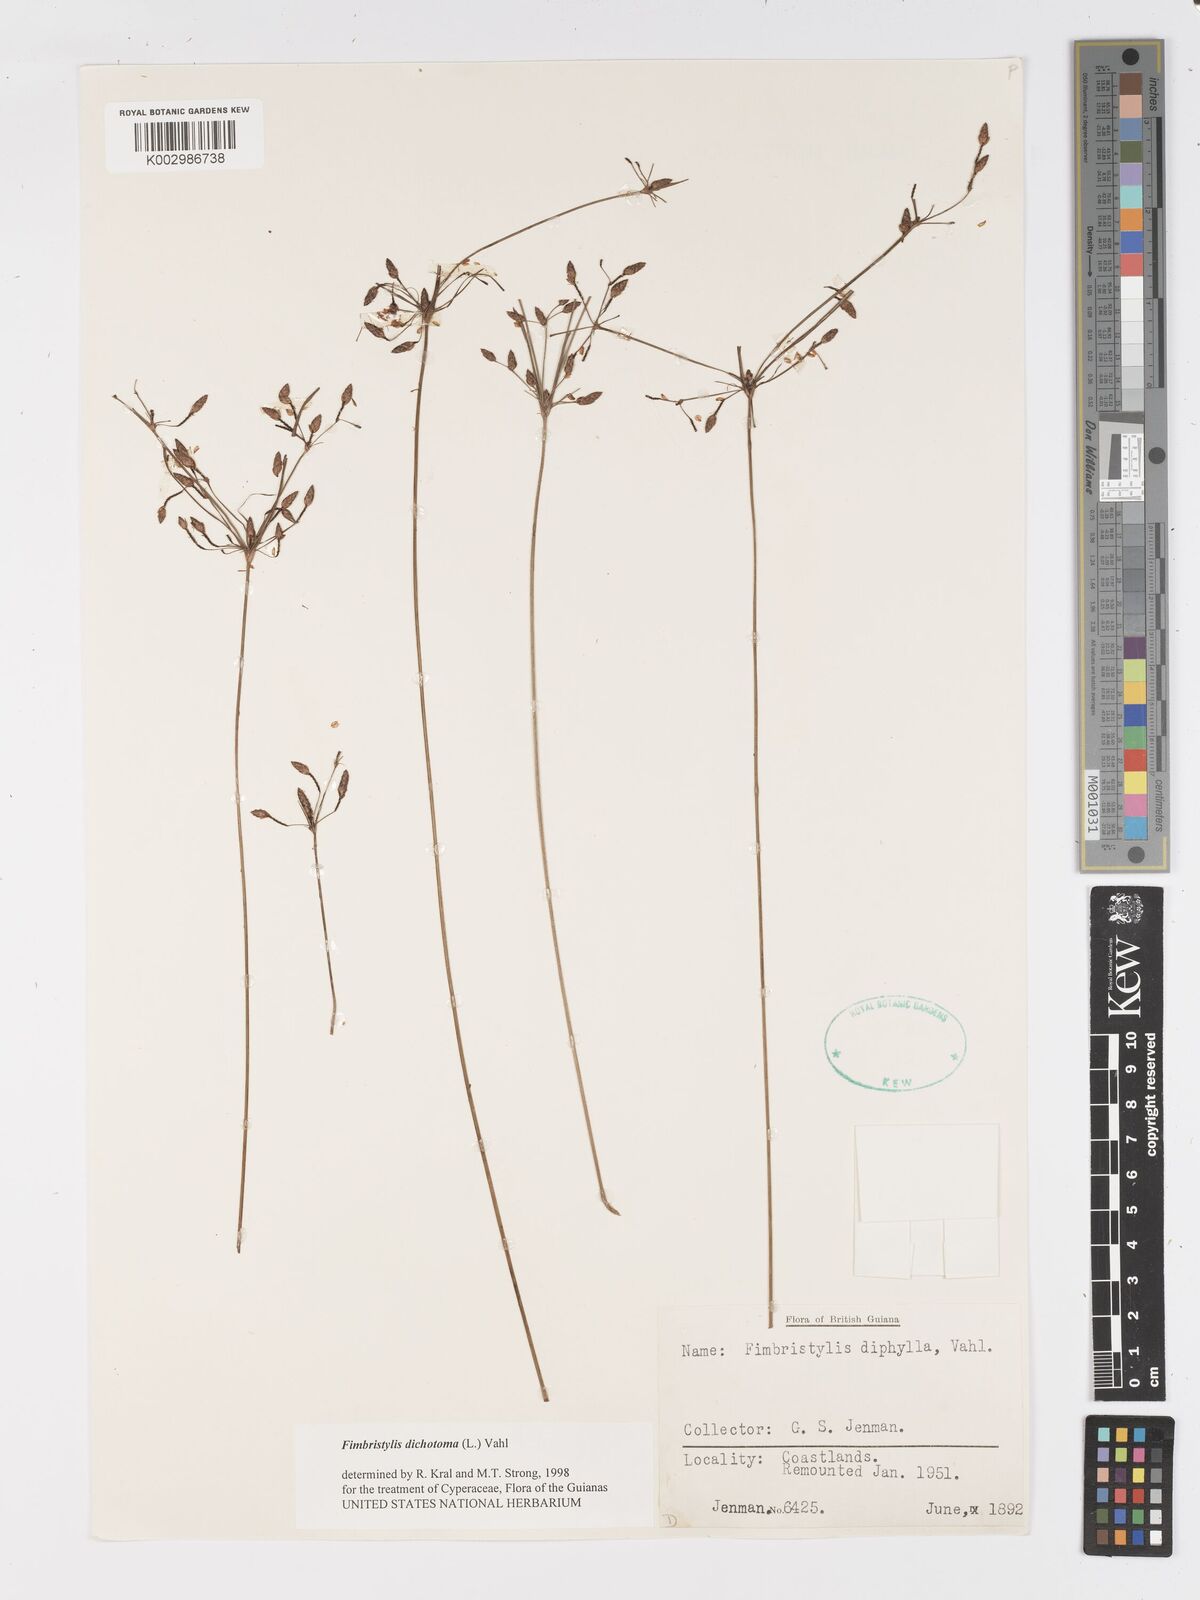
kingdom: Plantae
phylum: Tracheophyta
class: Liliopsida
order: Poales
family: Cyperaceae
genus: Fimbristylis
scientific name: Fimbristylis dichotoma
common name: Forked fimbry
